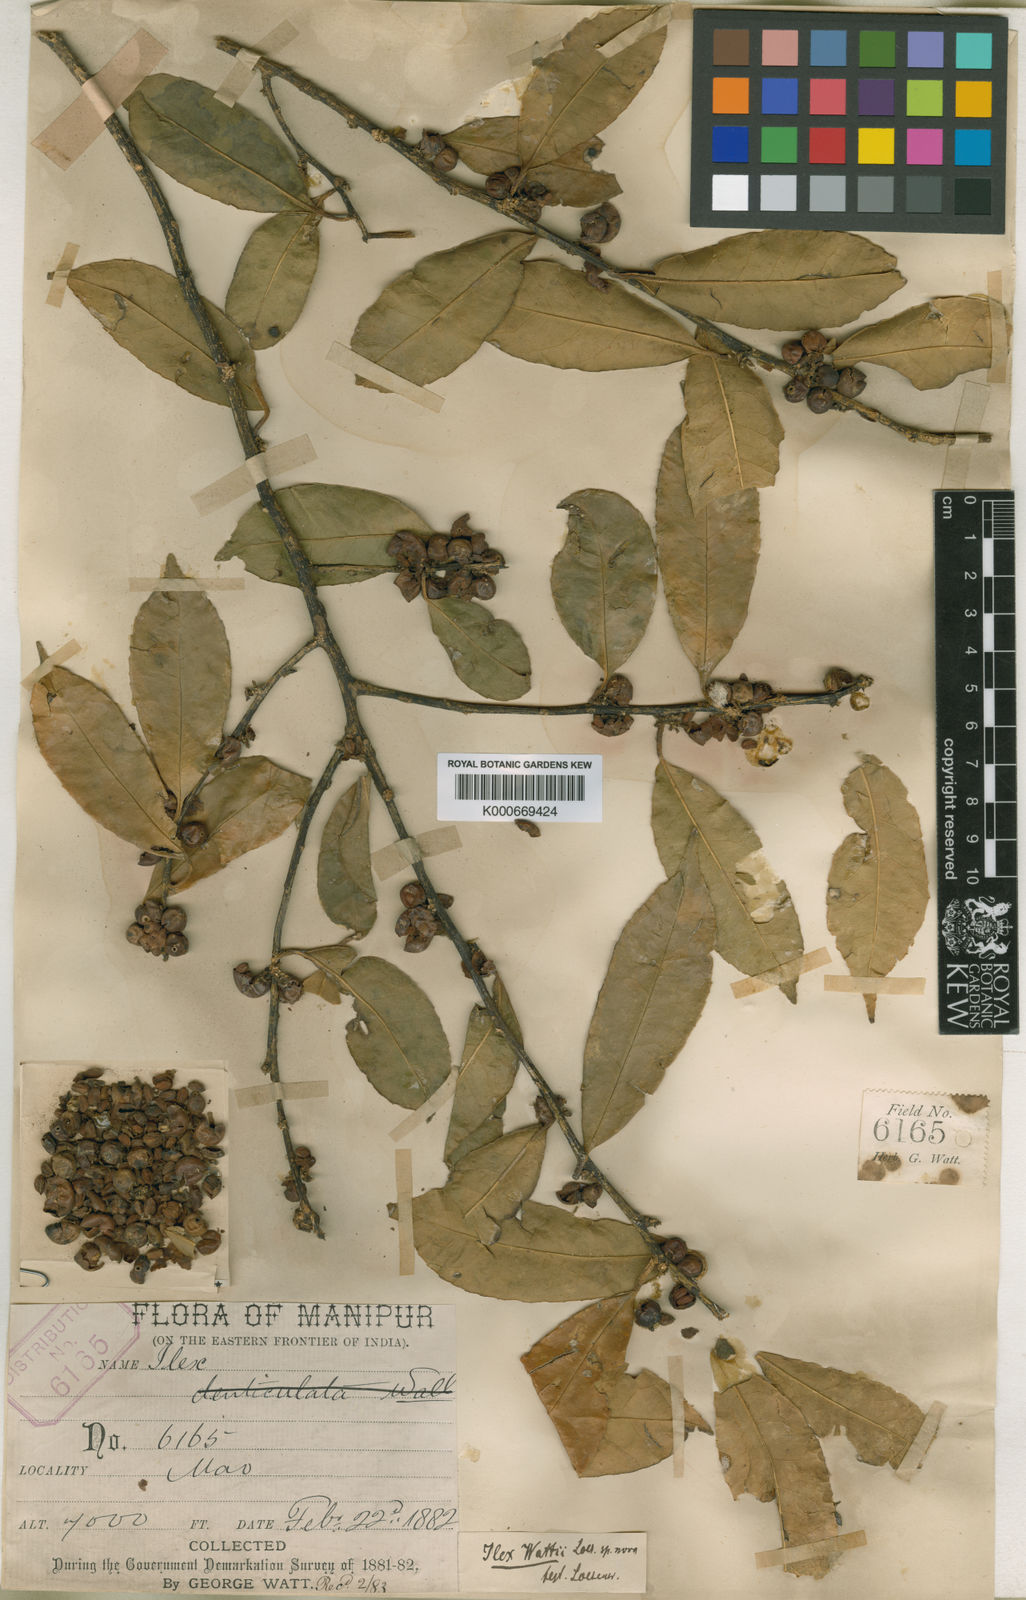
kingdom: Plantae
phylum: Tracheophyta
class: Magnoliopsida
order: Aquifoliales
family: Aquifoliaceae
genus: Ilex
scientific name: Ilex wattii
